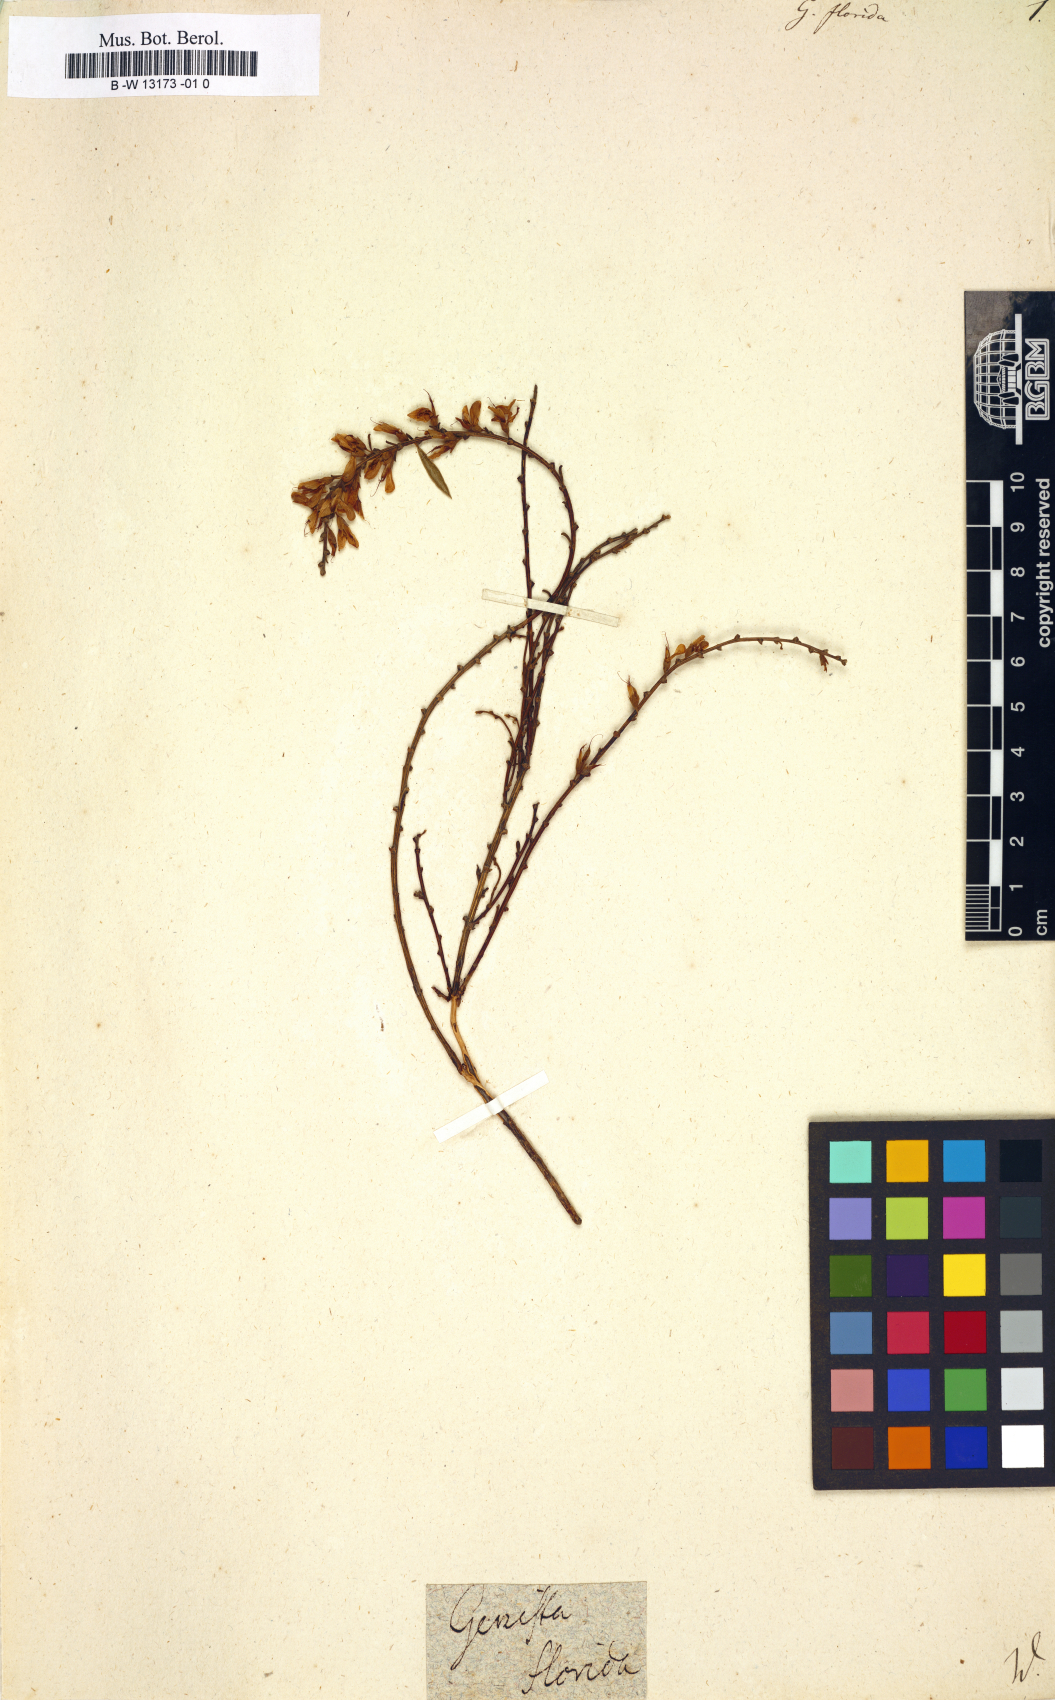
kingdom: Plantae
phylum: Tracheophyta
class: Magnoliopsida
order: Fabales
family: Fabaceae
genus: Genista
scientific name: Genista florida
